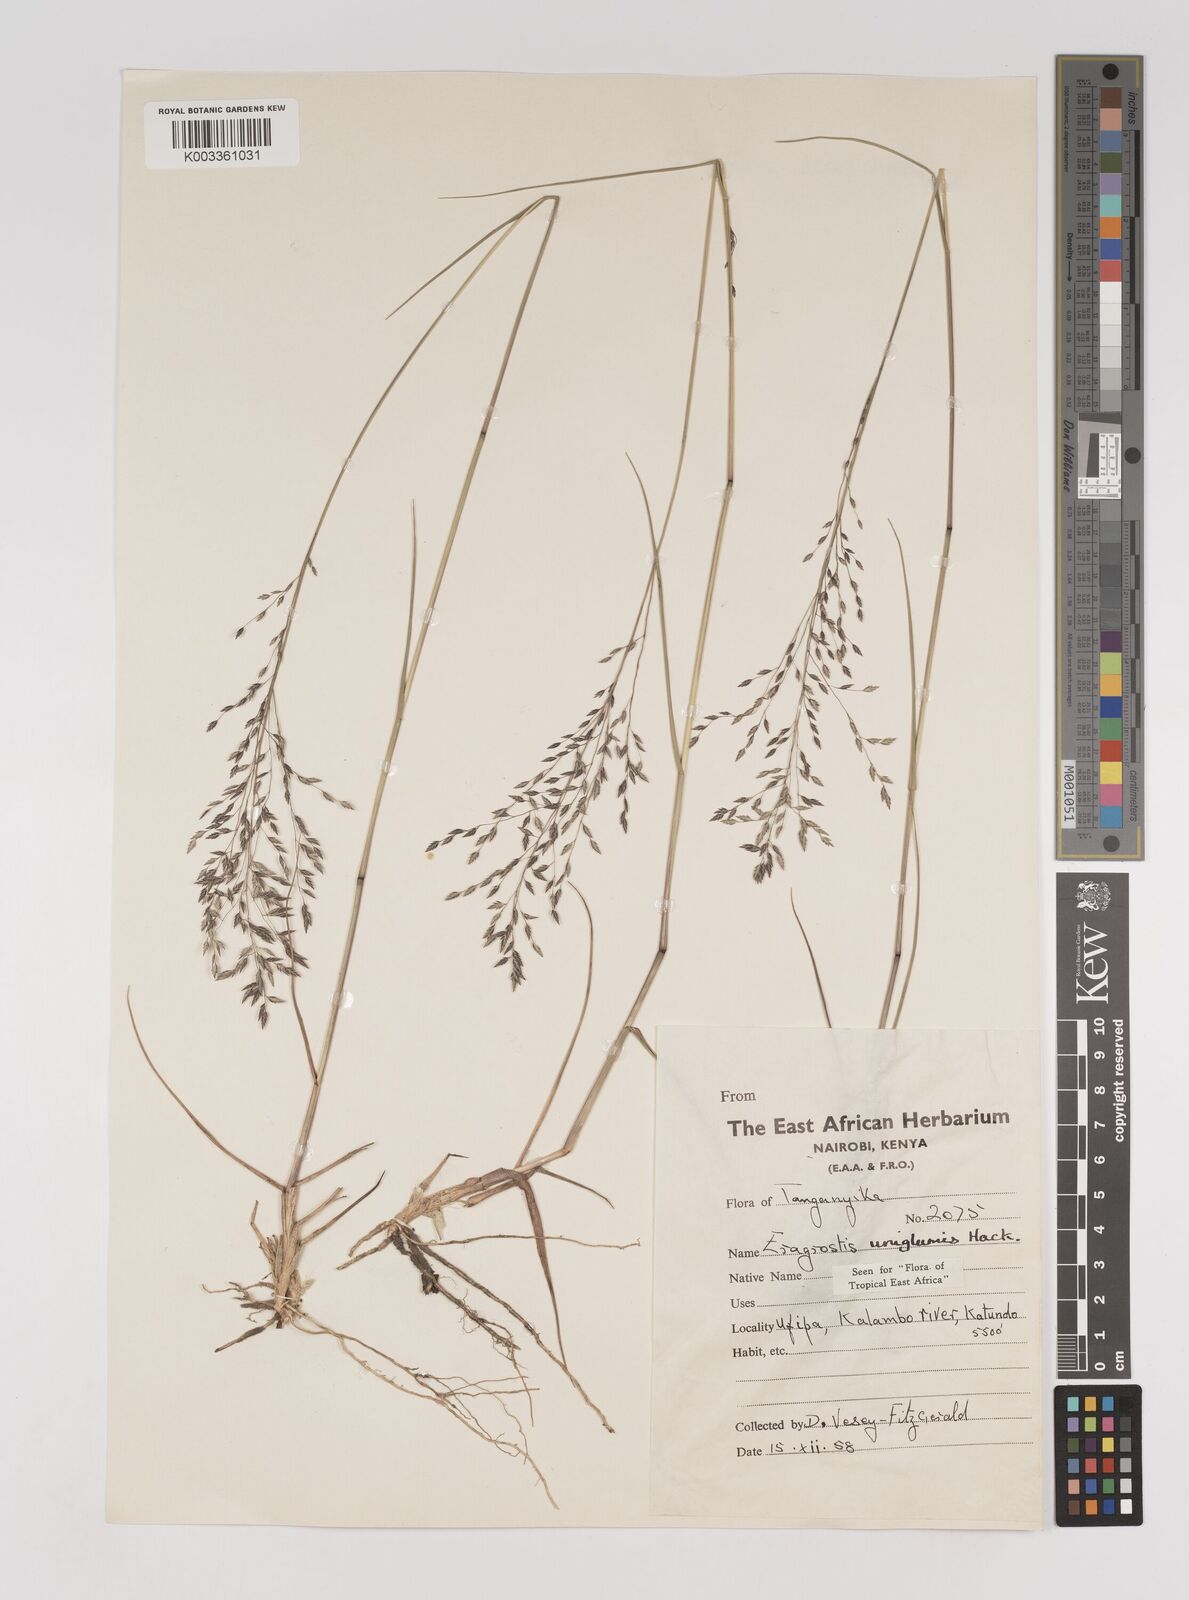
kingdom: Plantae
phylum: Tracheophyta
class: Liliopsida
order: Poales
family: Poaceae
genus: Eragrostis
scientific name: Eragrostis hierniana
